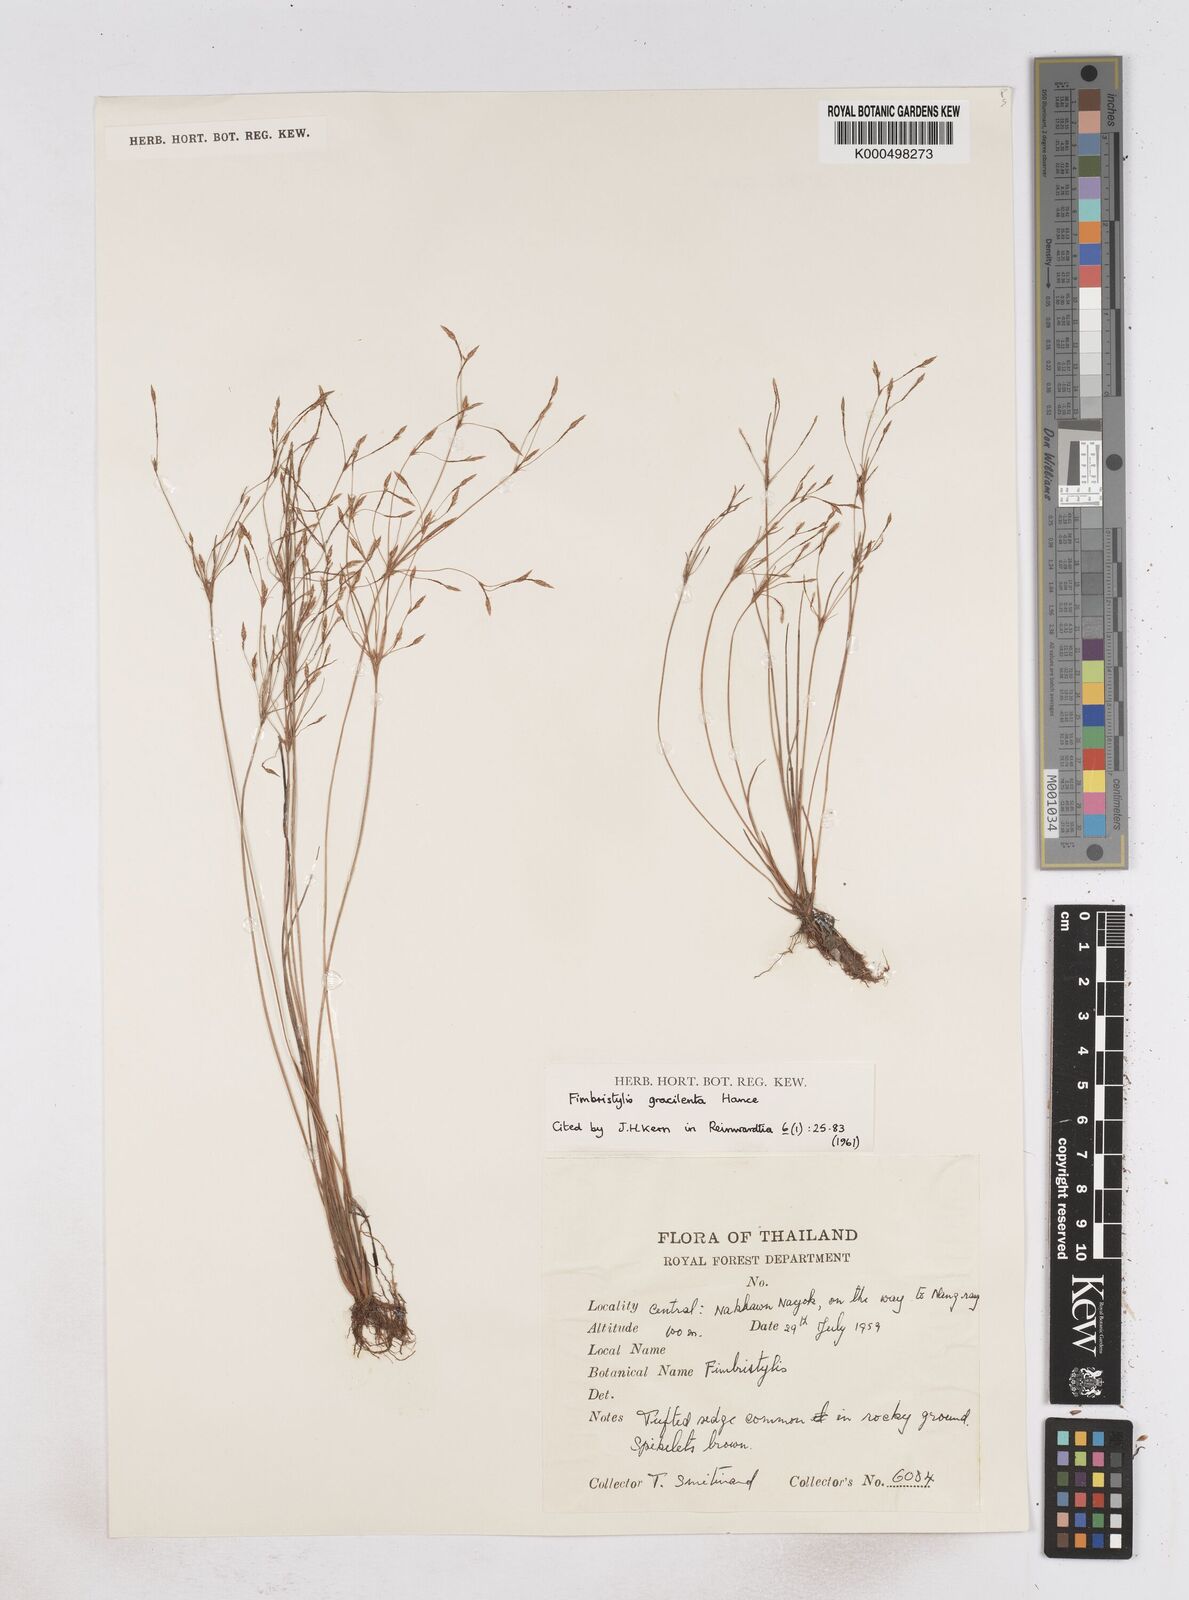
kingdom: Plantae
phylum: Tracheophyta
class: Liliopsida
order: Poales
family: Cyperaceae
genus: Fimbristylis
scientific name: Fimbristylis gracilenta
